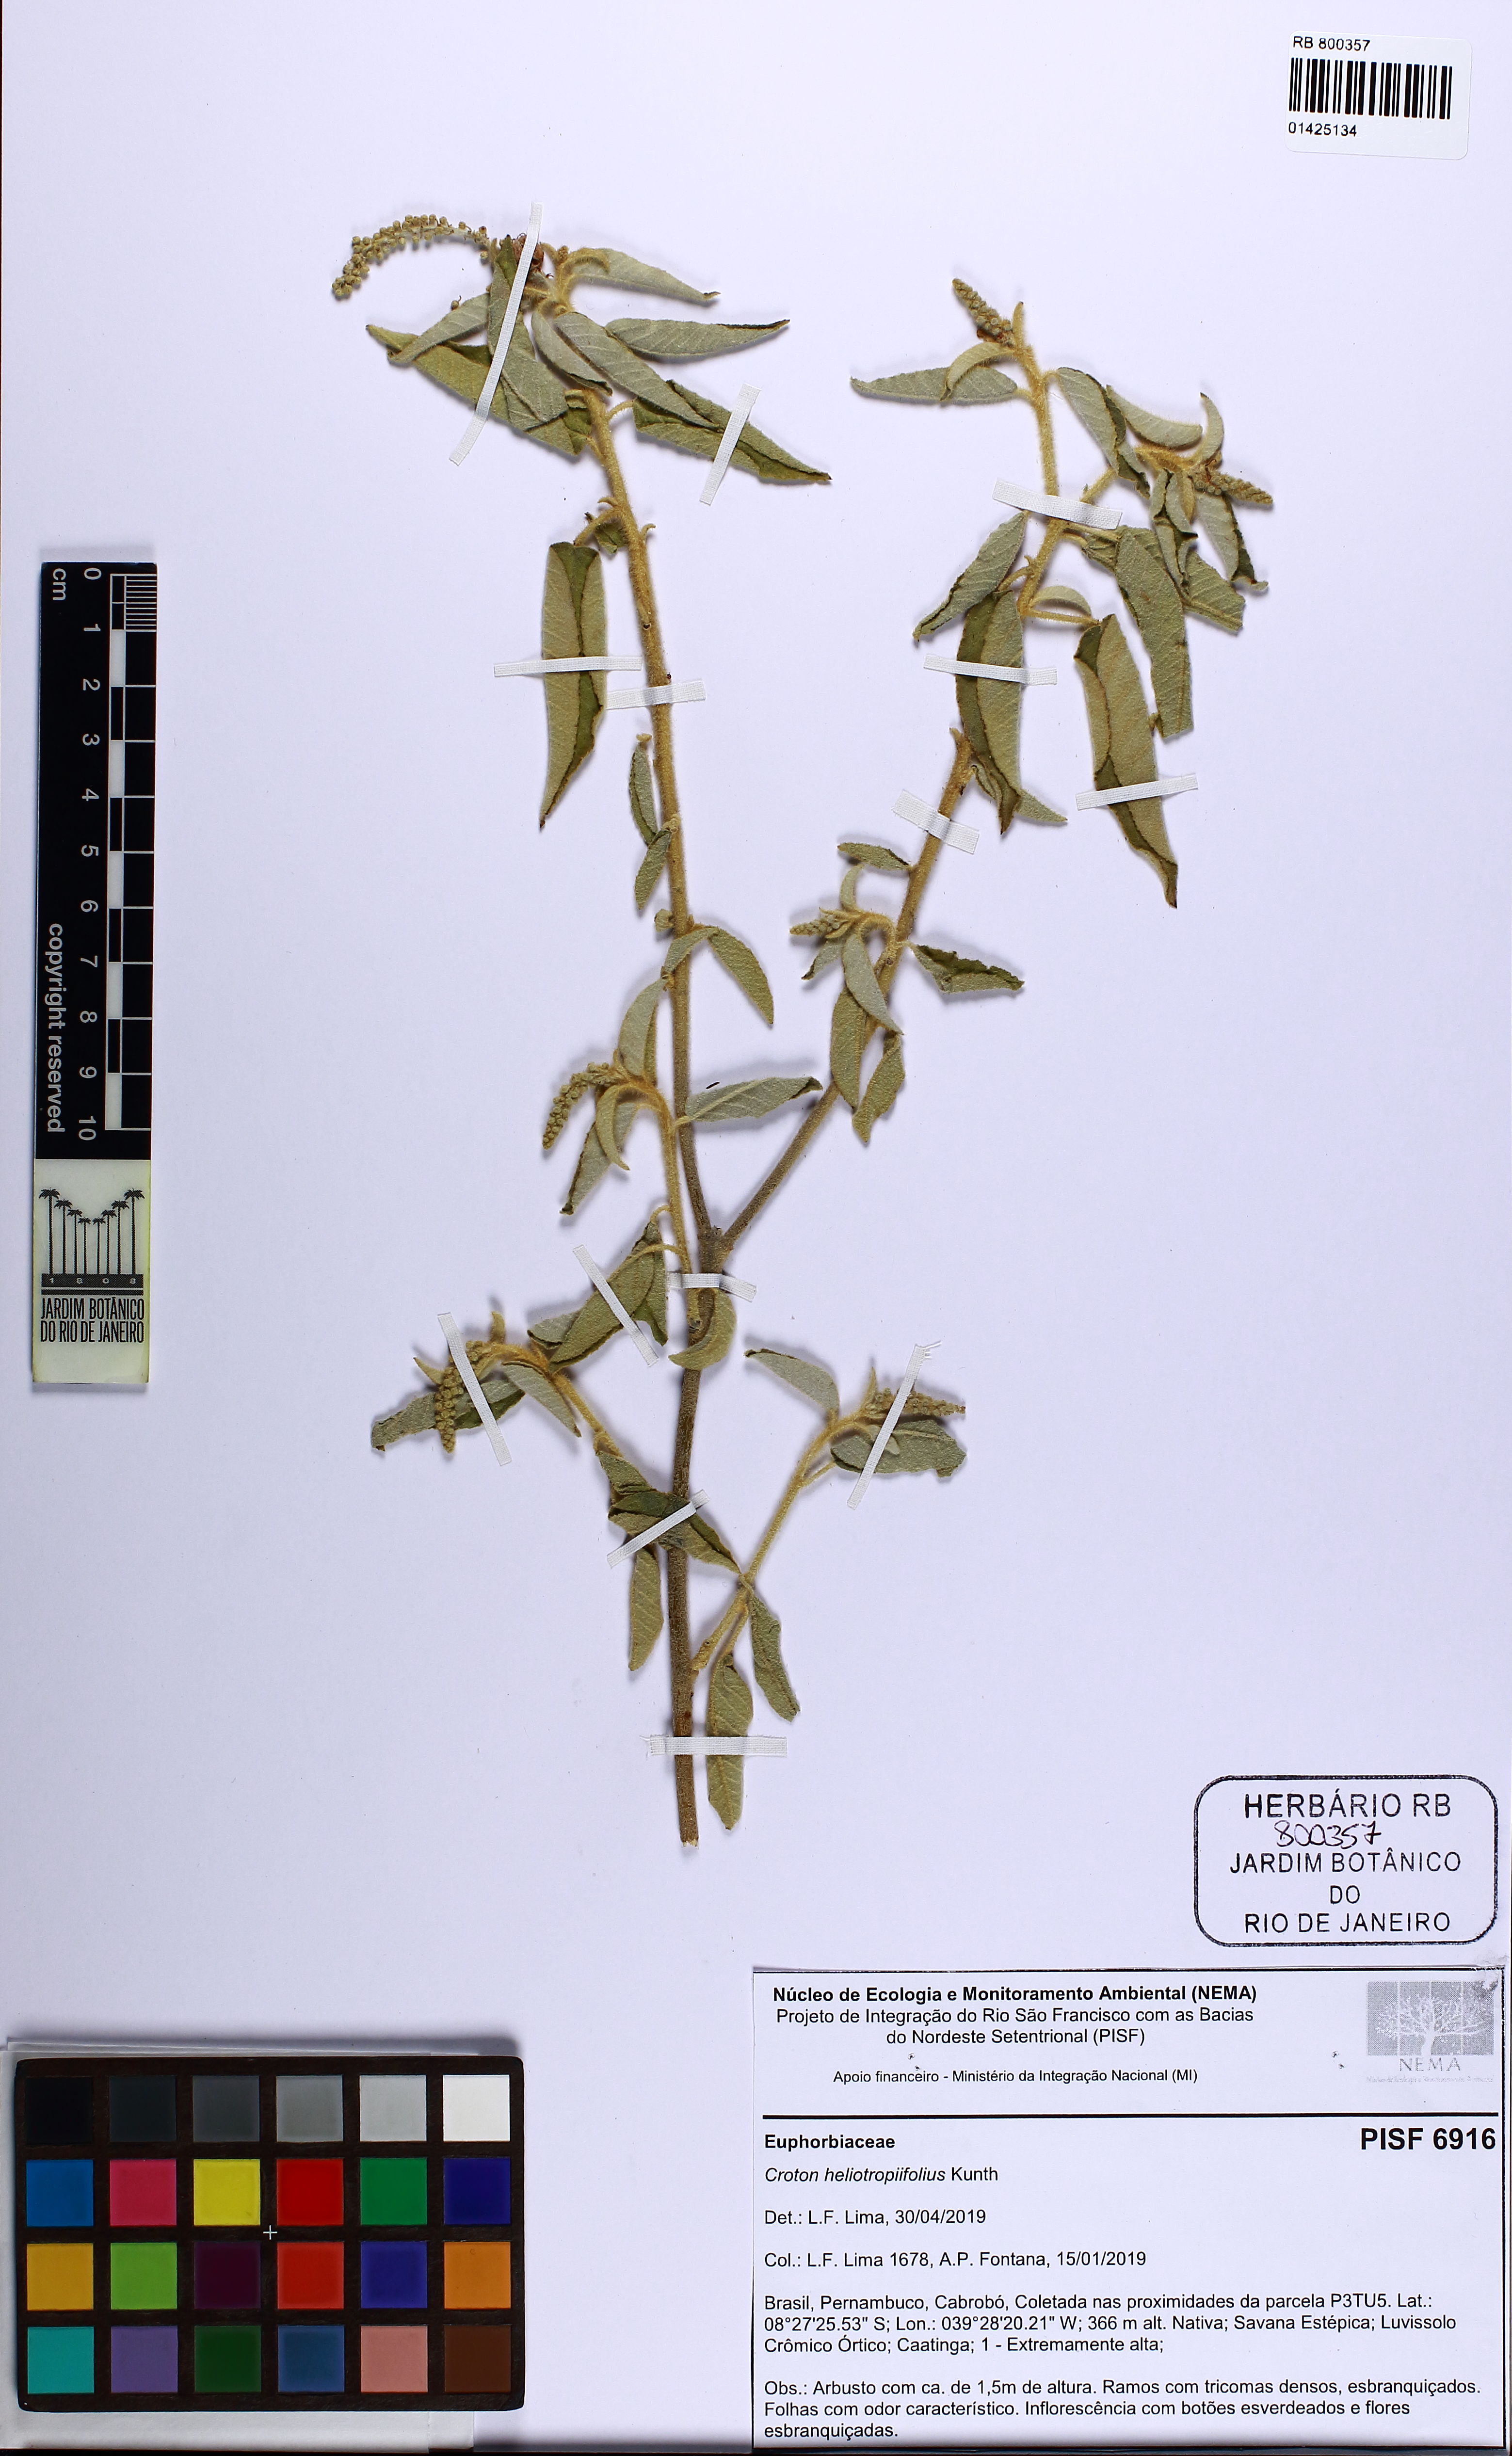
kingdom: Plantae
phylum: Tracheophyta
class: Magnoliopsida
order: Malpighiales
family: Euphorbiaceae
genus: Croton
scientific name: Croton heliotropiifolius
